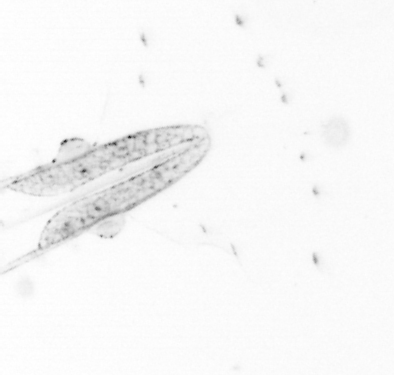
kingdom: Animalia
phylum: Chaetognatha
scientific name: Chaetognatha
